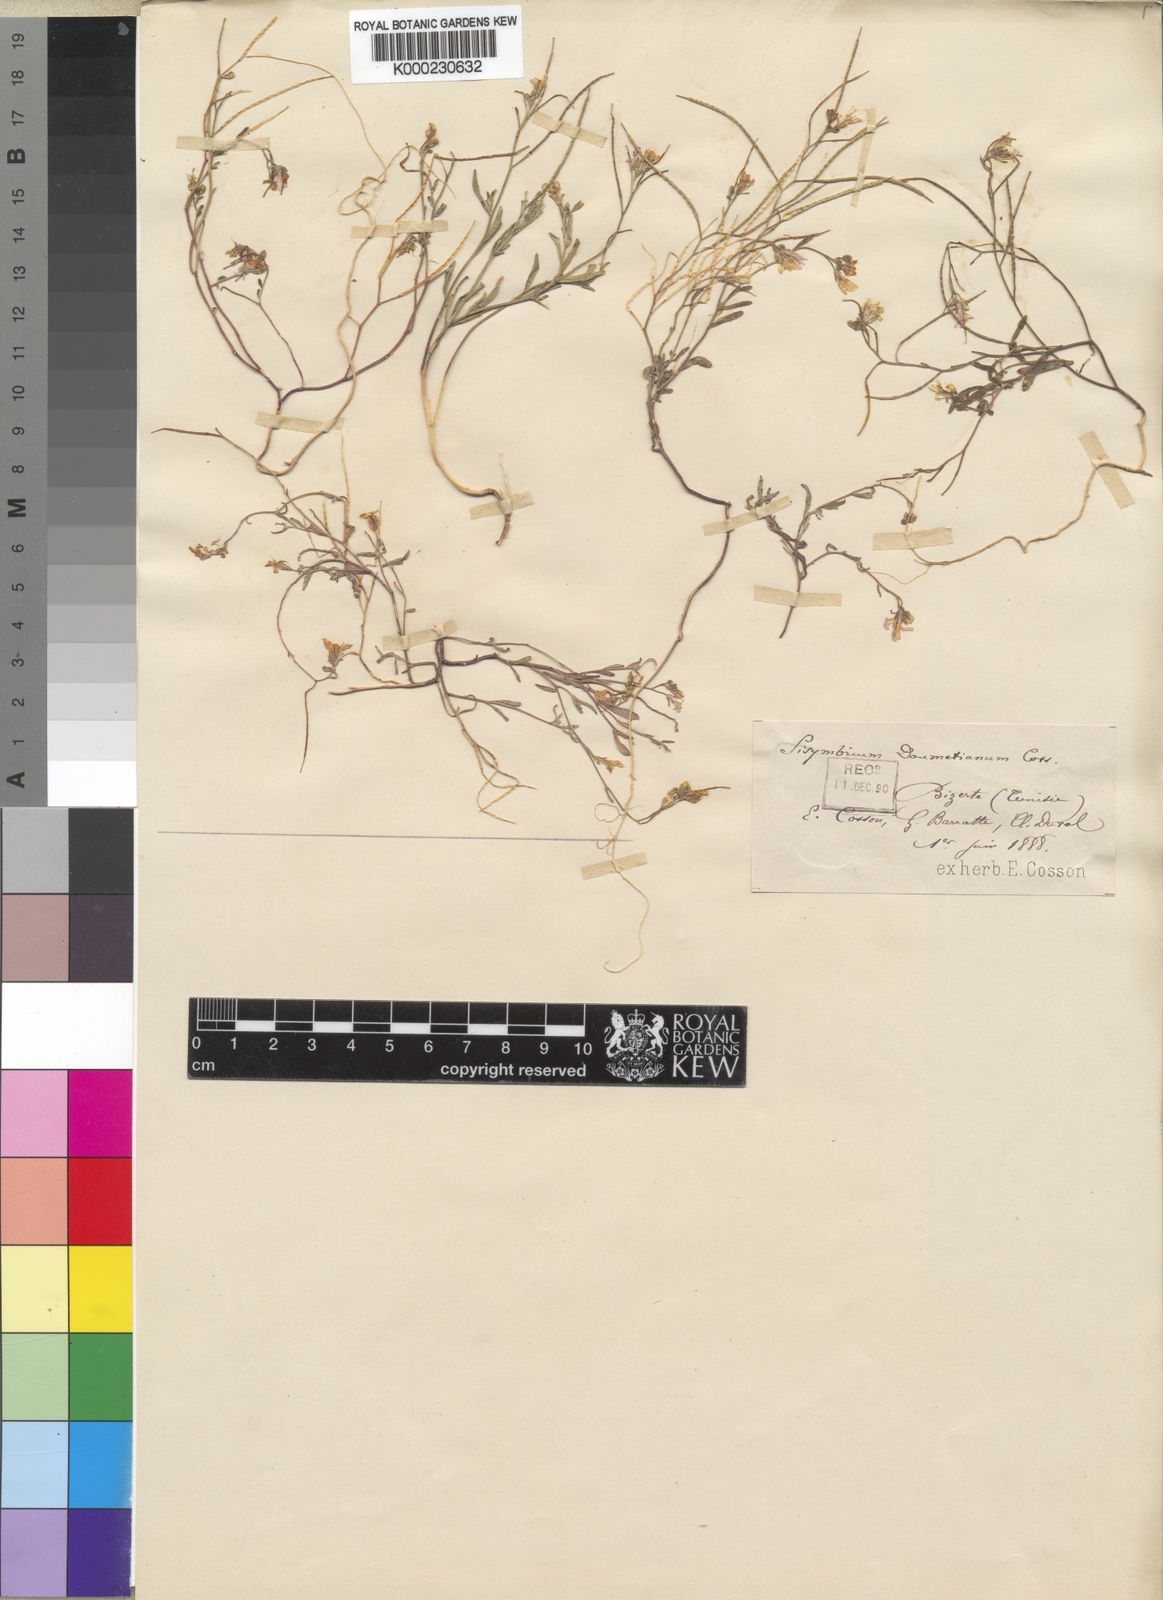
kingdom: Plantae
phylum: Tracheophyta
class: Magnoliopsida
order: Brassicales
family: Brassicaceae
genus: Maresia
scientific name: Maresia doumetiana
